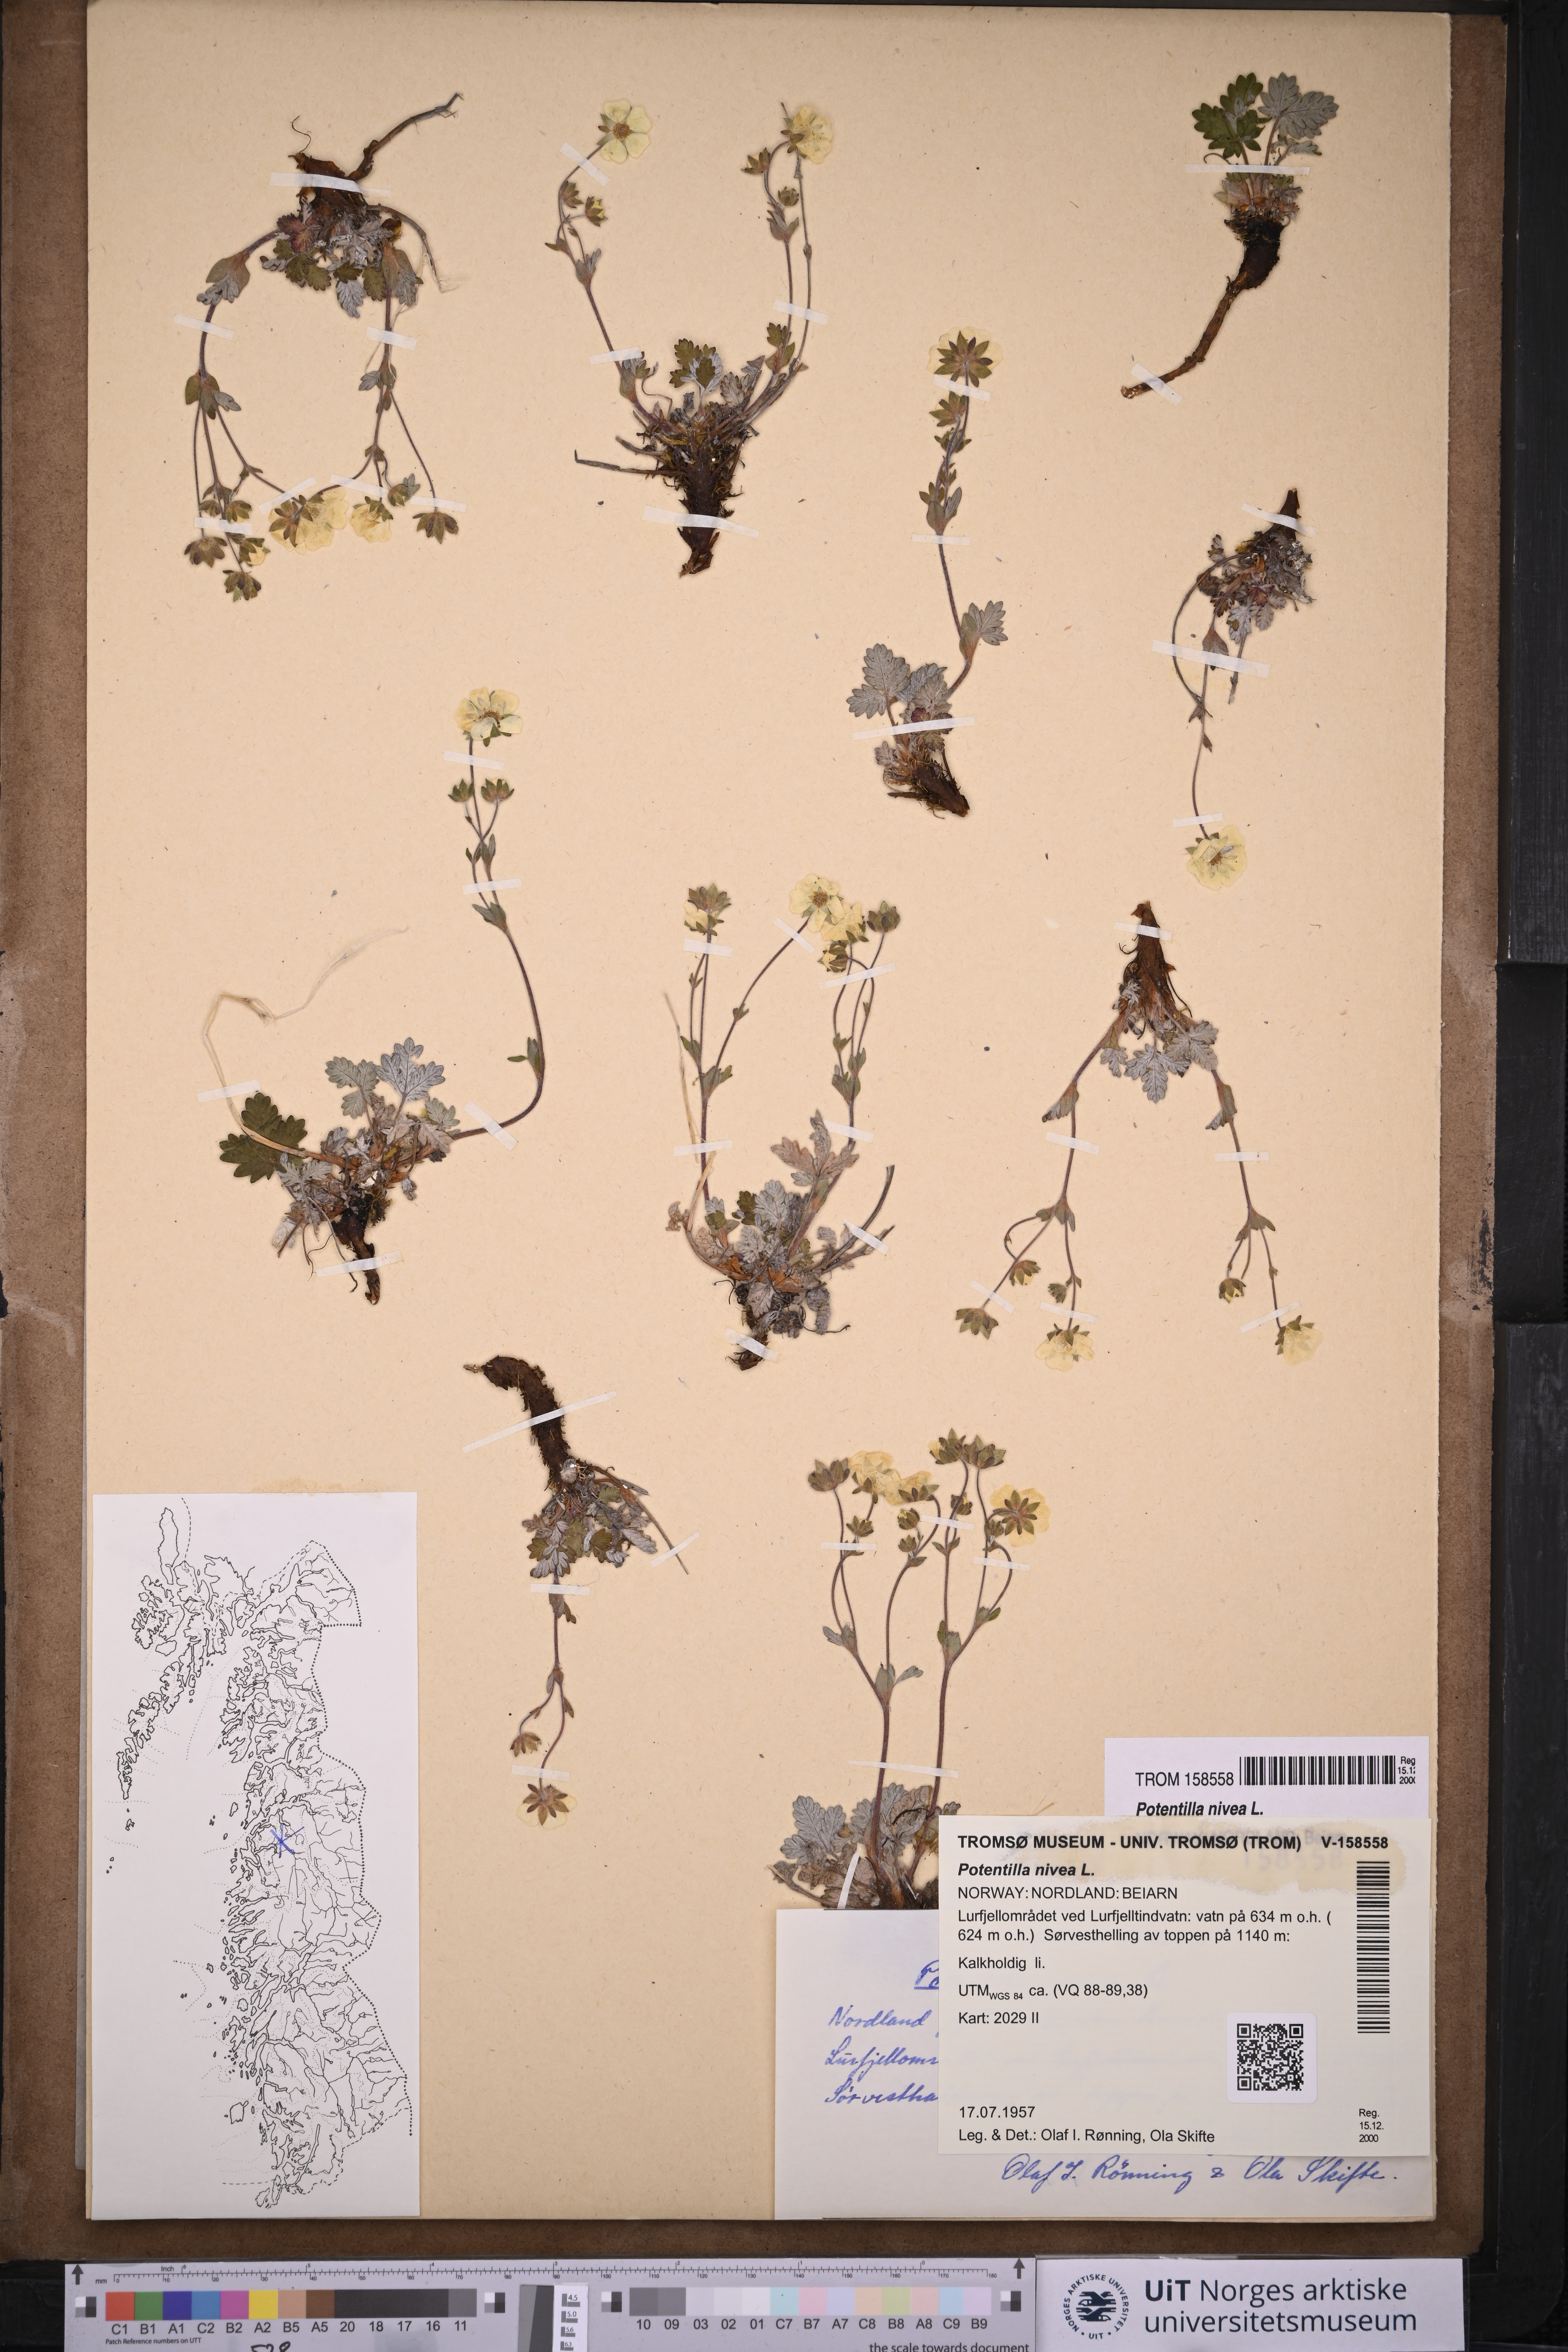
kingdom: Plantae
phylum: Tracheophyta
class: Magnoliopsida
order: Rosales
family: Rosaceae
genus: Potentilla
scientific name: Potentilla arenosa
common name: Bluff cinquefoil
